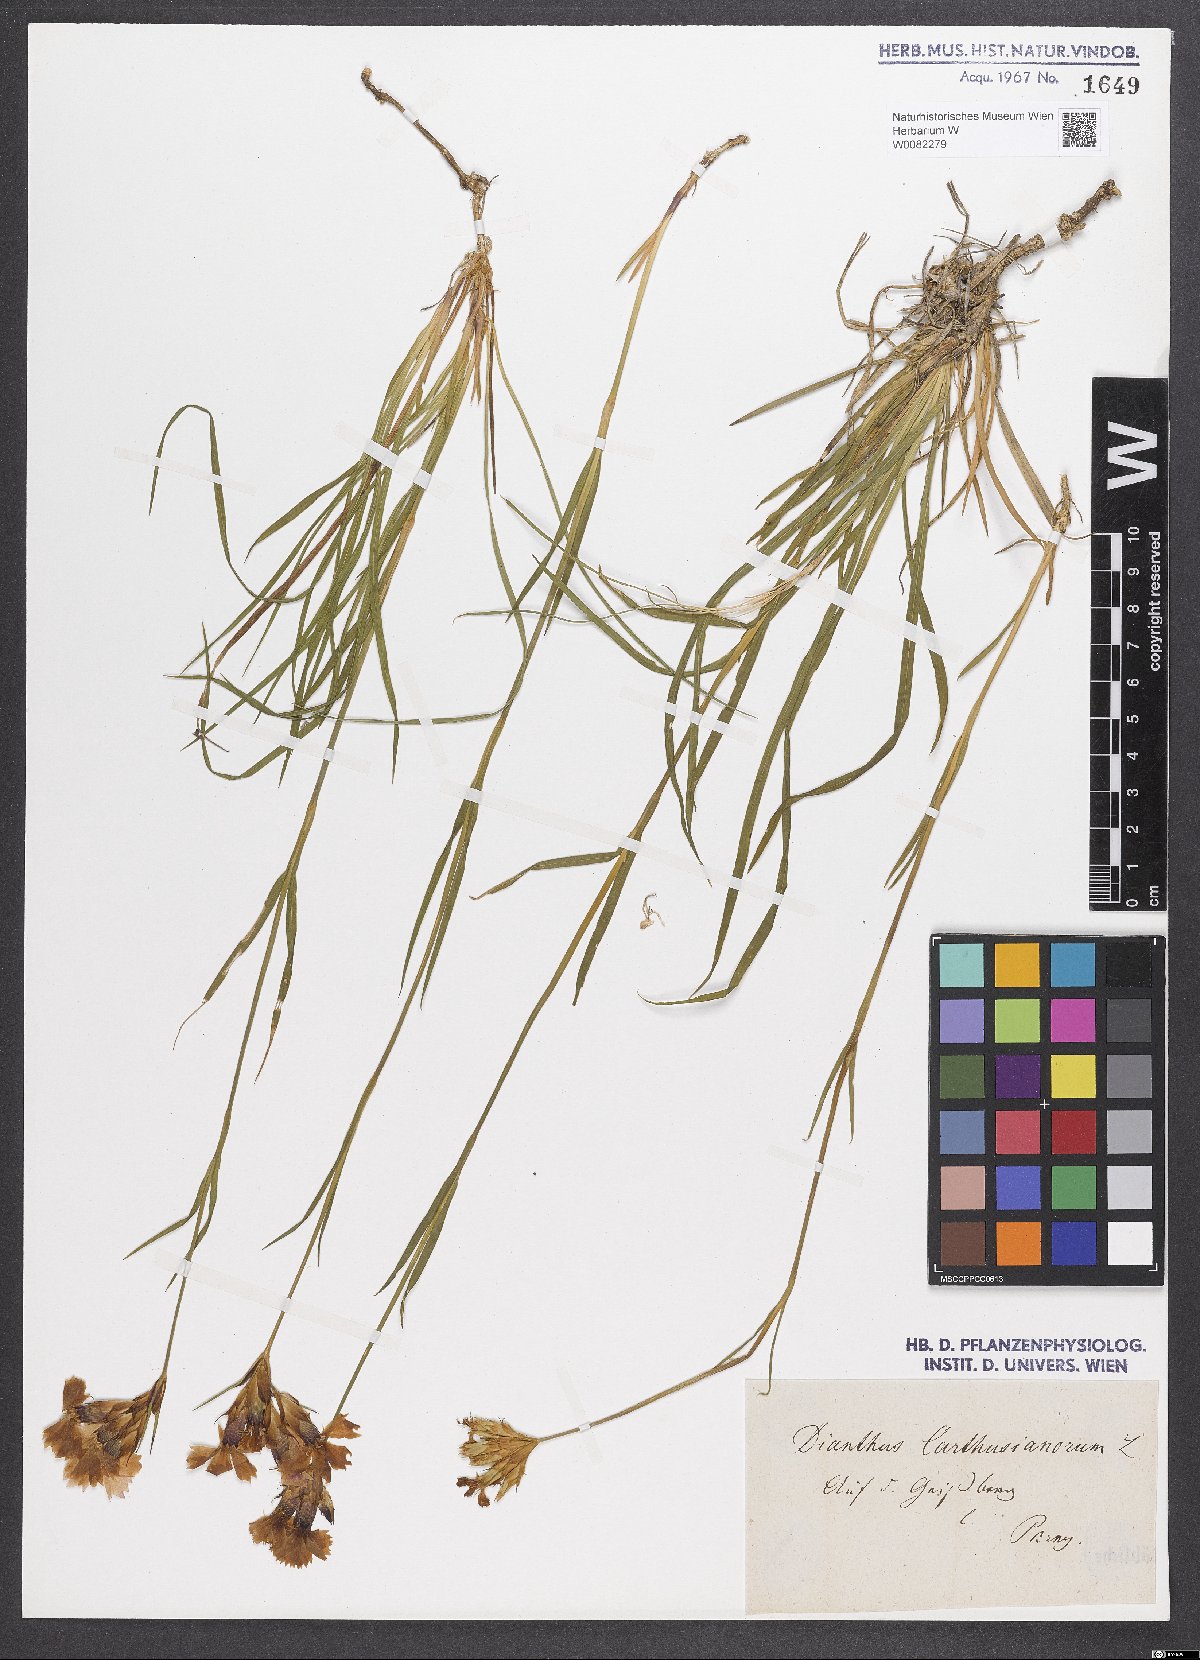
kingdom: Plantae
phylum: Tracheophyta
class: Magnoliopsida
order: Caryophyllales
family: Caryophyllaceae
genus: Dianthus
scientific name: Dianthus carthusianorum
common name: Carthusian pink
